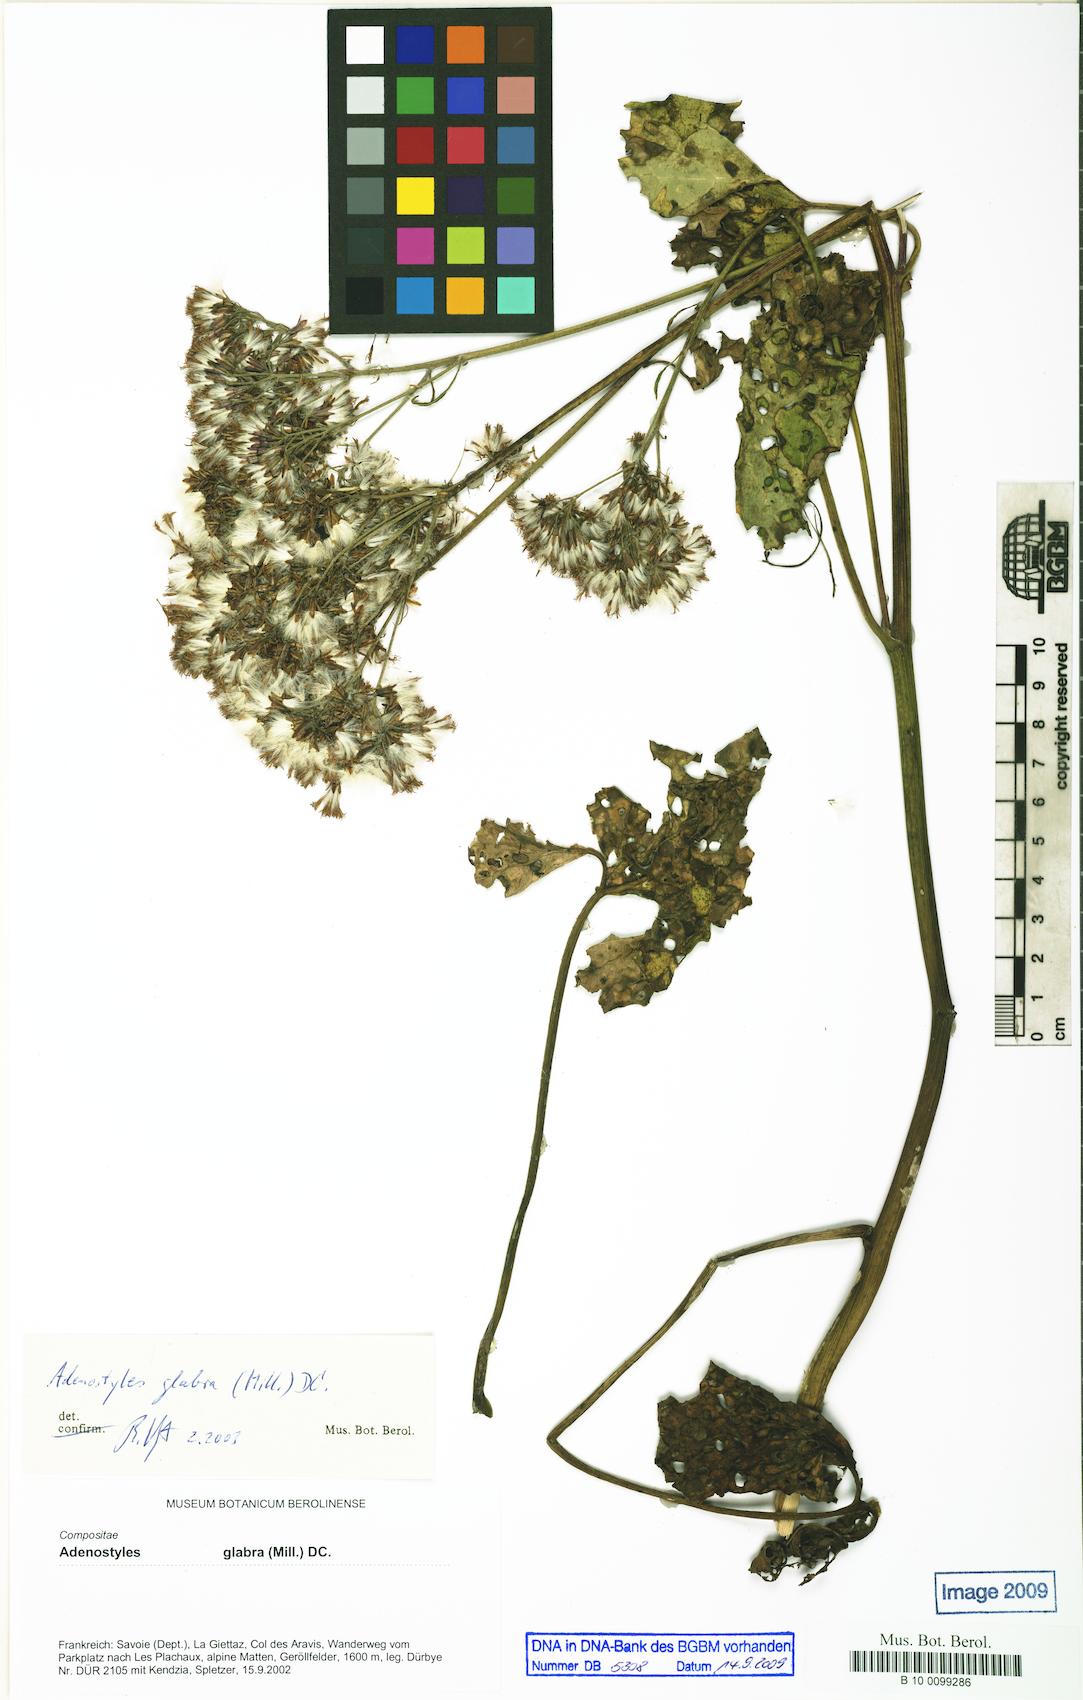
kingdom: Plantae
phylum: Tracheophyta
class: Magnoliopsida
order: Asterales
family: Asteraceae
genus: Adenostyles
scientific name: Adenostyles alpina
